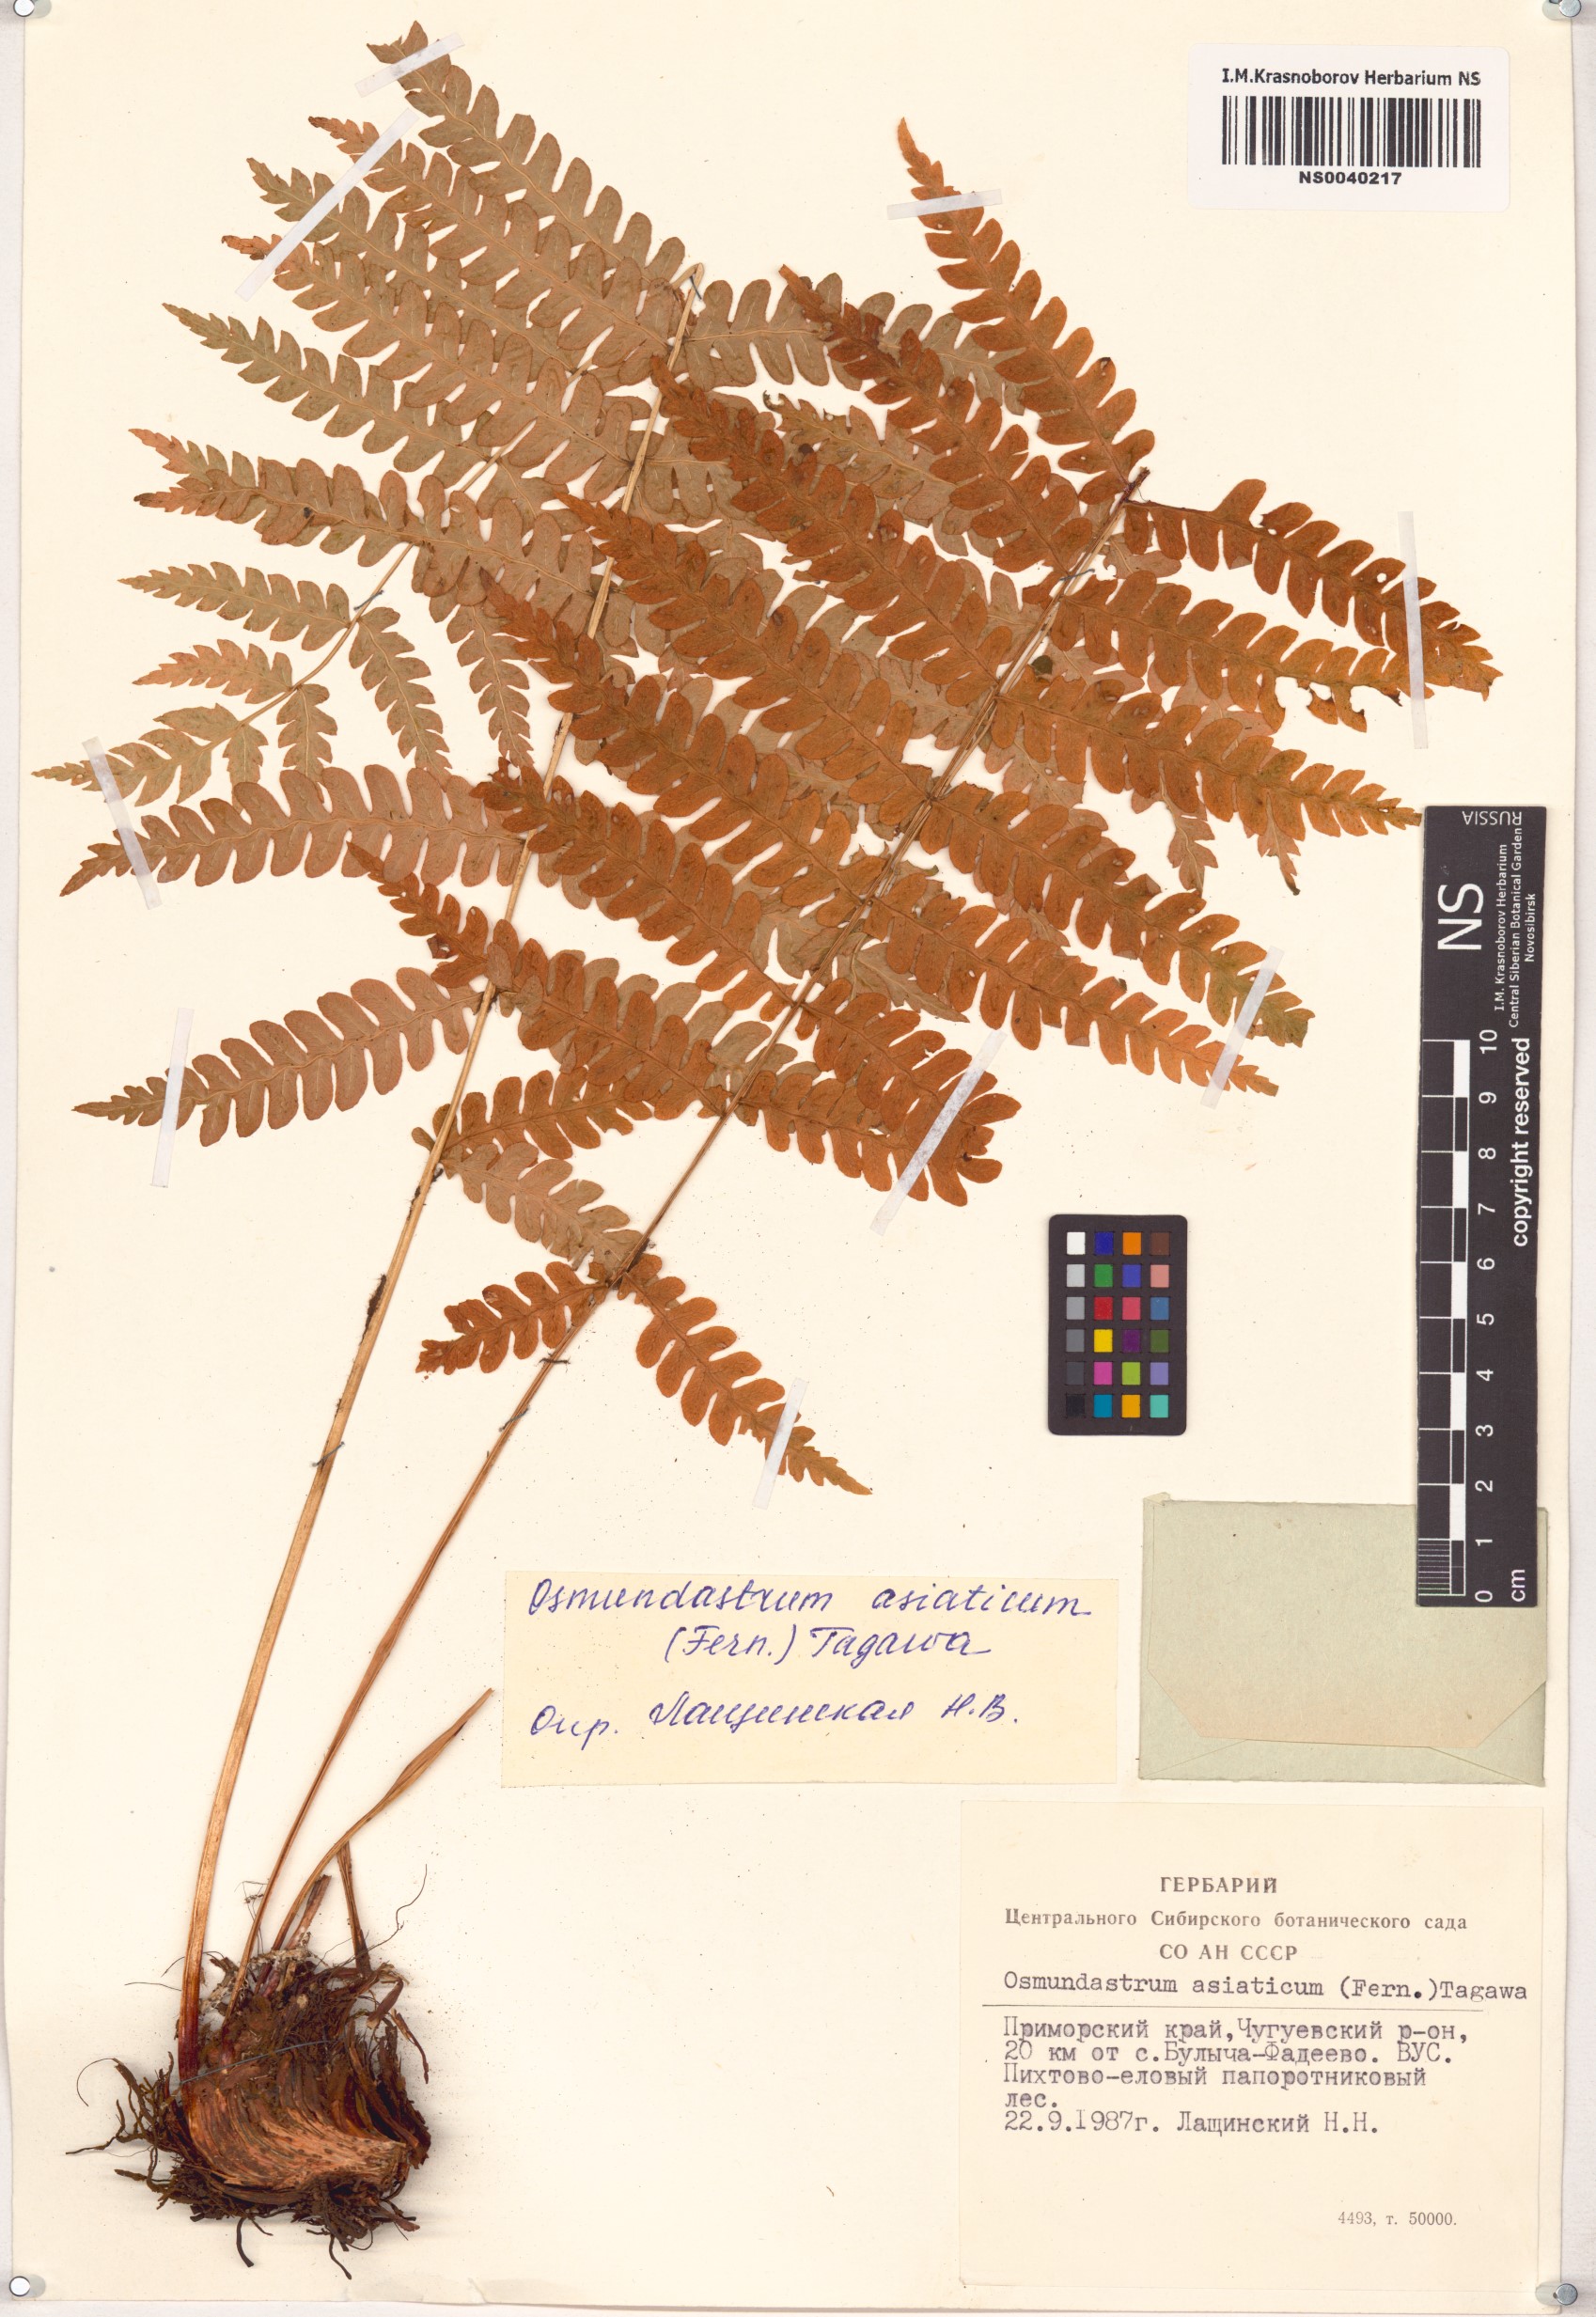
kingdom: Plantae
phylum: Tracheophyta
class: Polypodiopsida
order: Osmundales
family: Osmundaceae
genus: Osmundastrum
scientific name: Osmundastrum cinnamomeum
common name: Cinnamon fern
